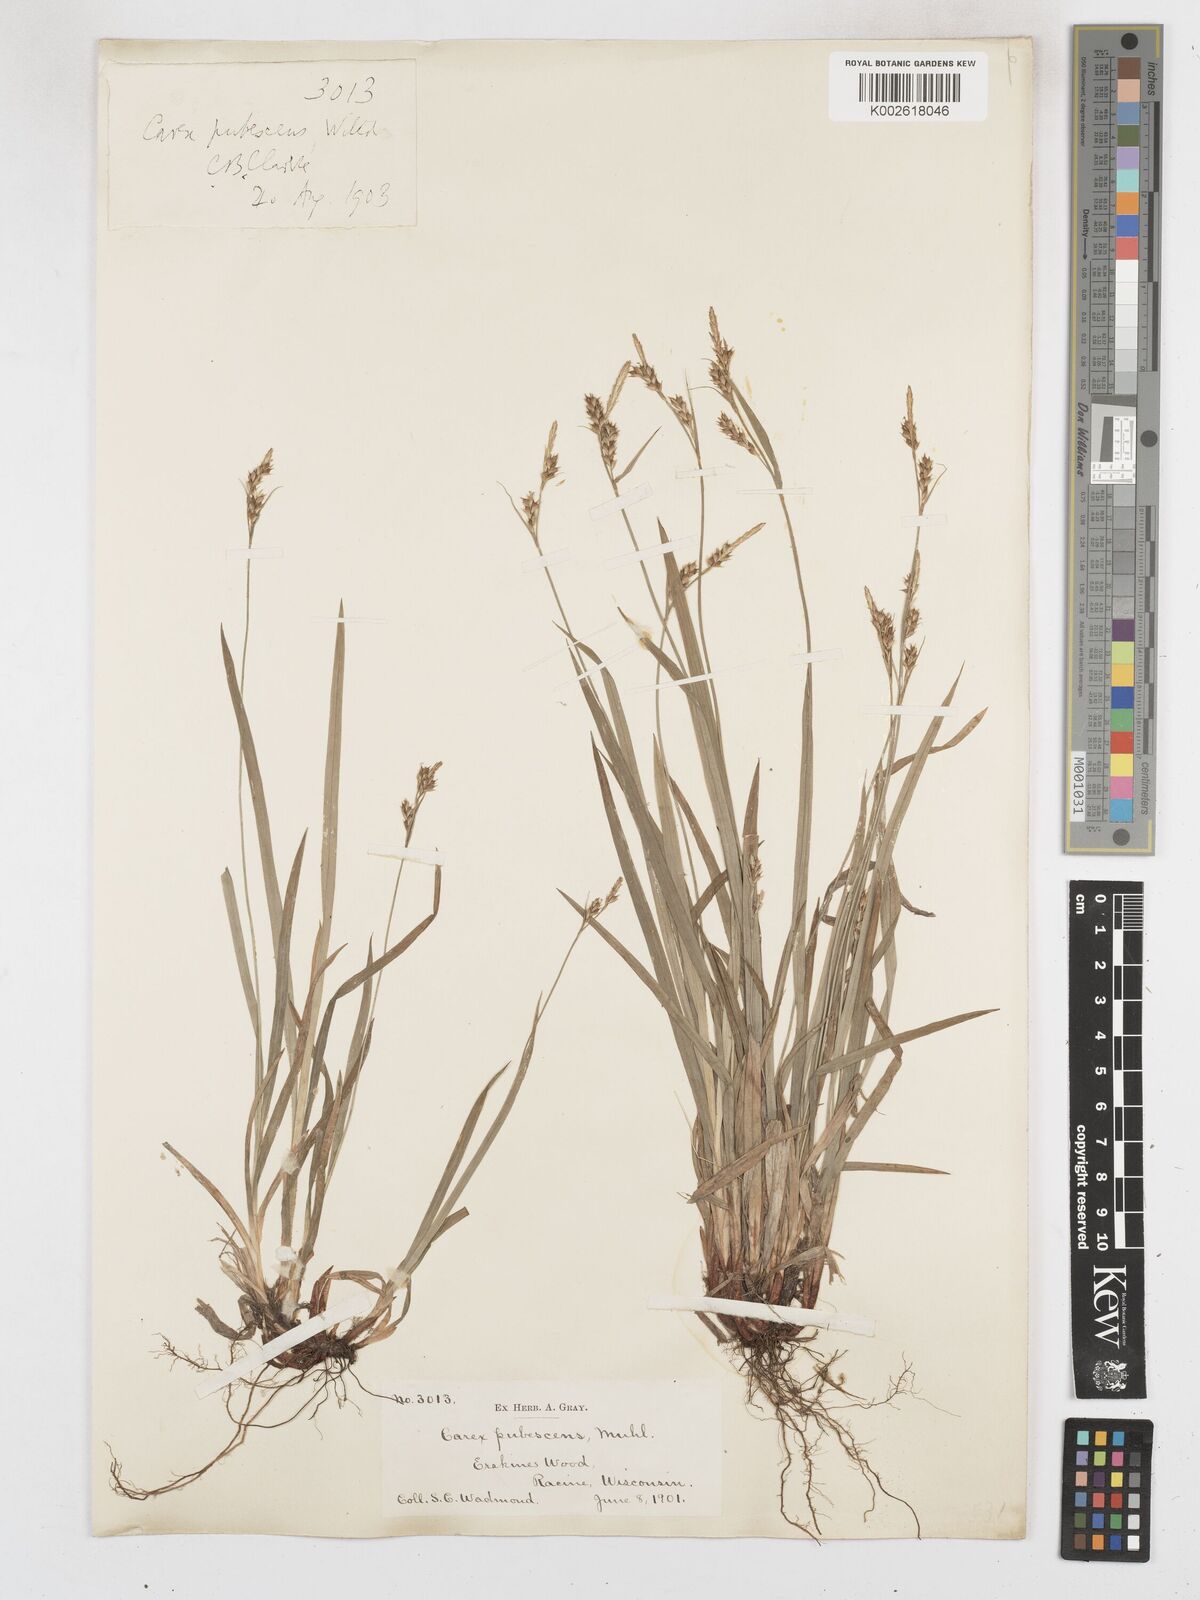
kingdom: Plantae
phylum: Tracheophyta
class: Liliopsida
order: Poales
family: Cyperaceae
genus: Carex
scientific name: Carex hirtifolia
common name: Hairy sedge
